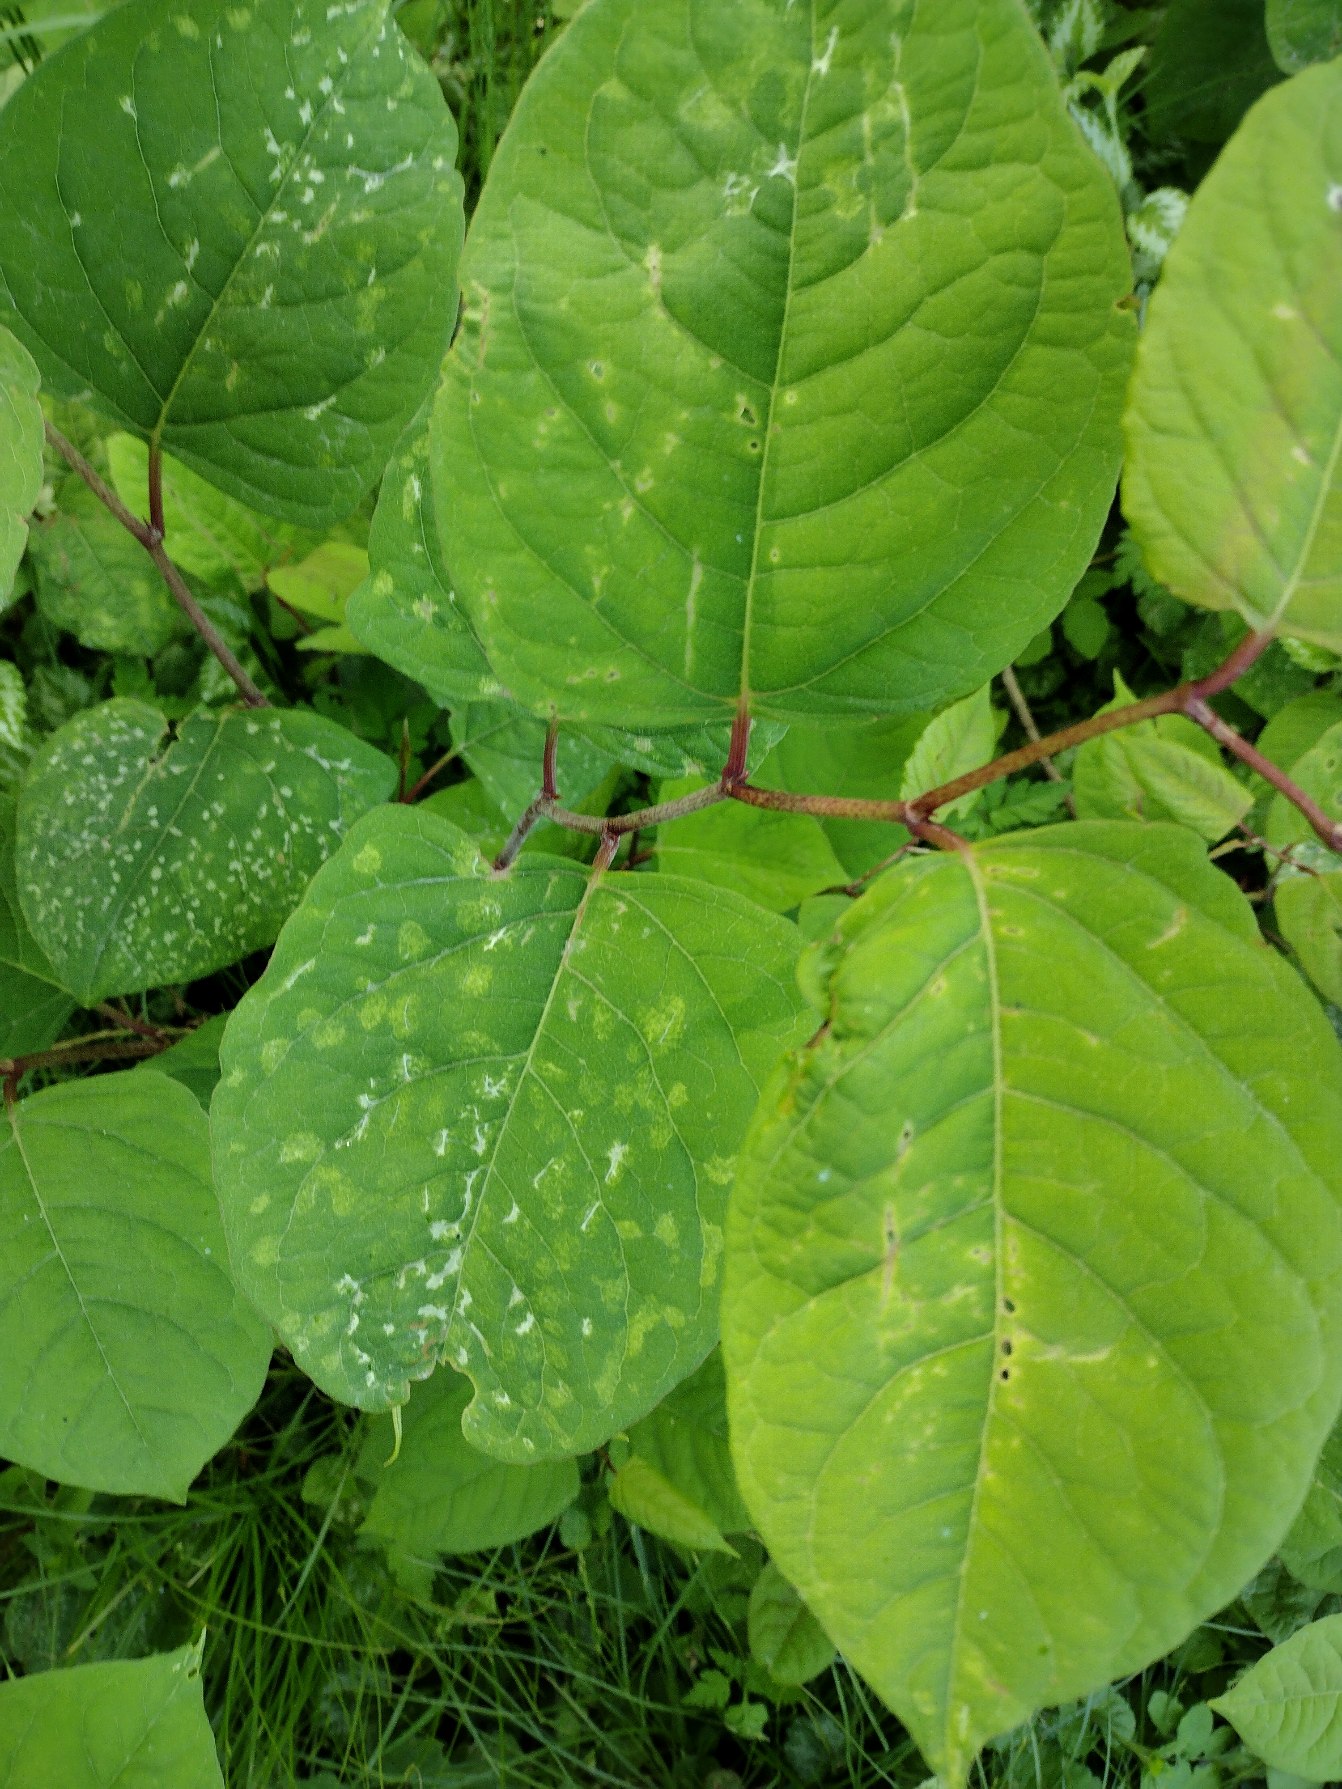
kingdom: Plantae
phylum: Tracheophyta
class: Magnoliopsida
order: Caryophyllales
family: Polygonaceae
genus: Reynoutria
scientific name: Reynoutria japonica
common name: Japan-pileurt
